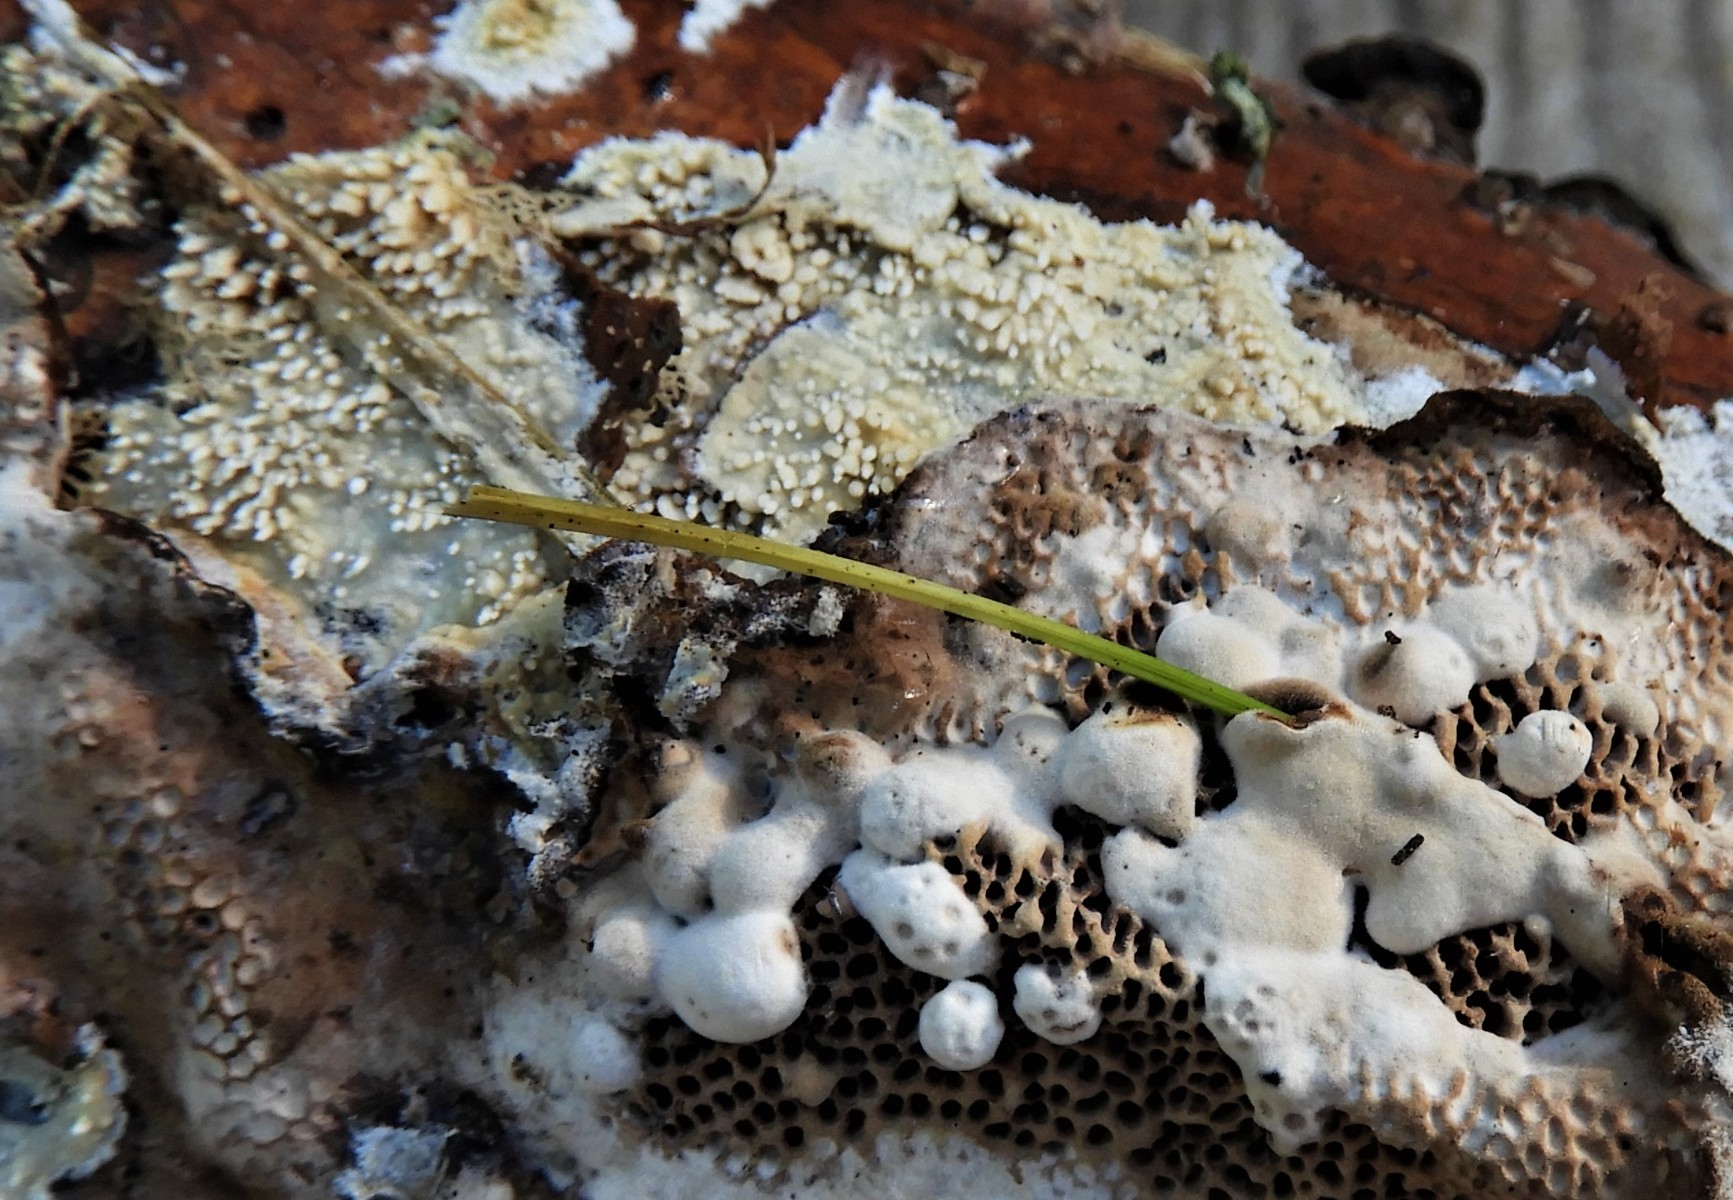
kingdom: Fungi
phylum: Basidiomycota
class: Agaricomycetes
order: Polyporales
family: Meruliaceae
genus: Mycoacia
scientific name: Mycoacia
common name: vokspig
